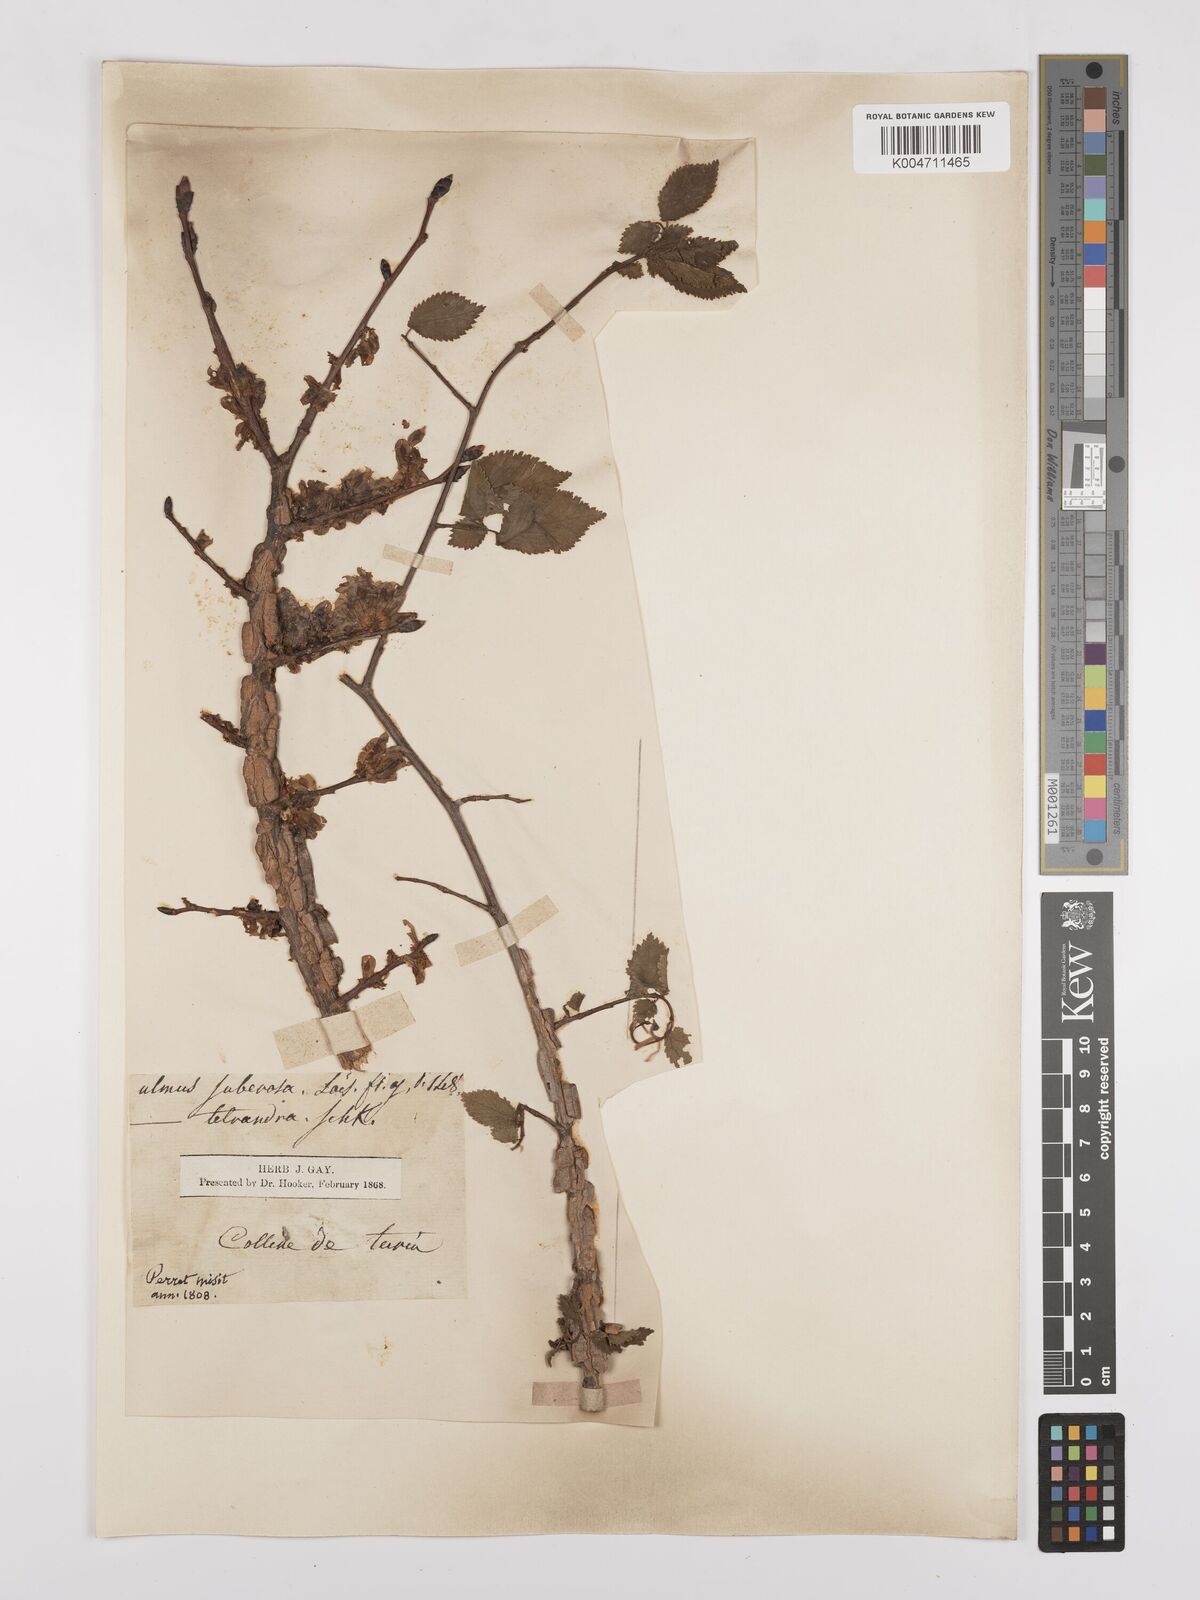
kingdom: Plantae
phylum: Tracheophyta
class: Magnoliopsida
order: Rosales
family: Ulmaceae
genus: Ulmus
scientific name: Ulmus minor
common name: Small-leaved elm
